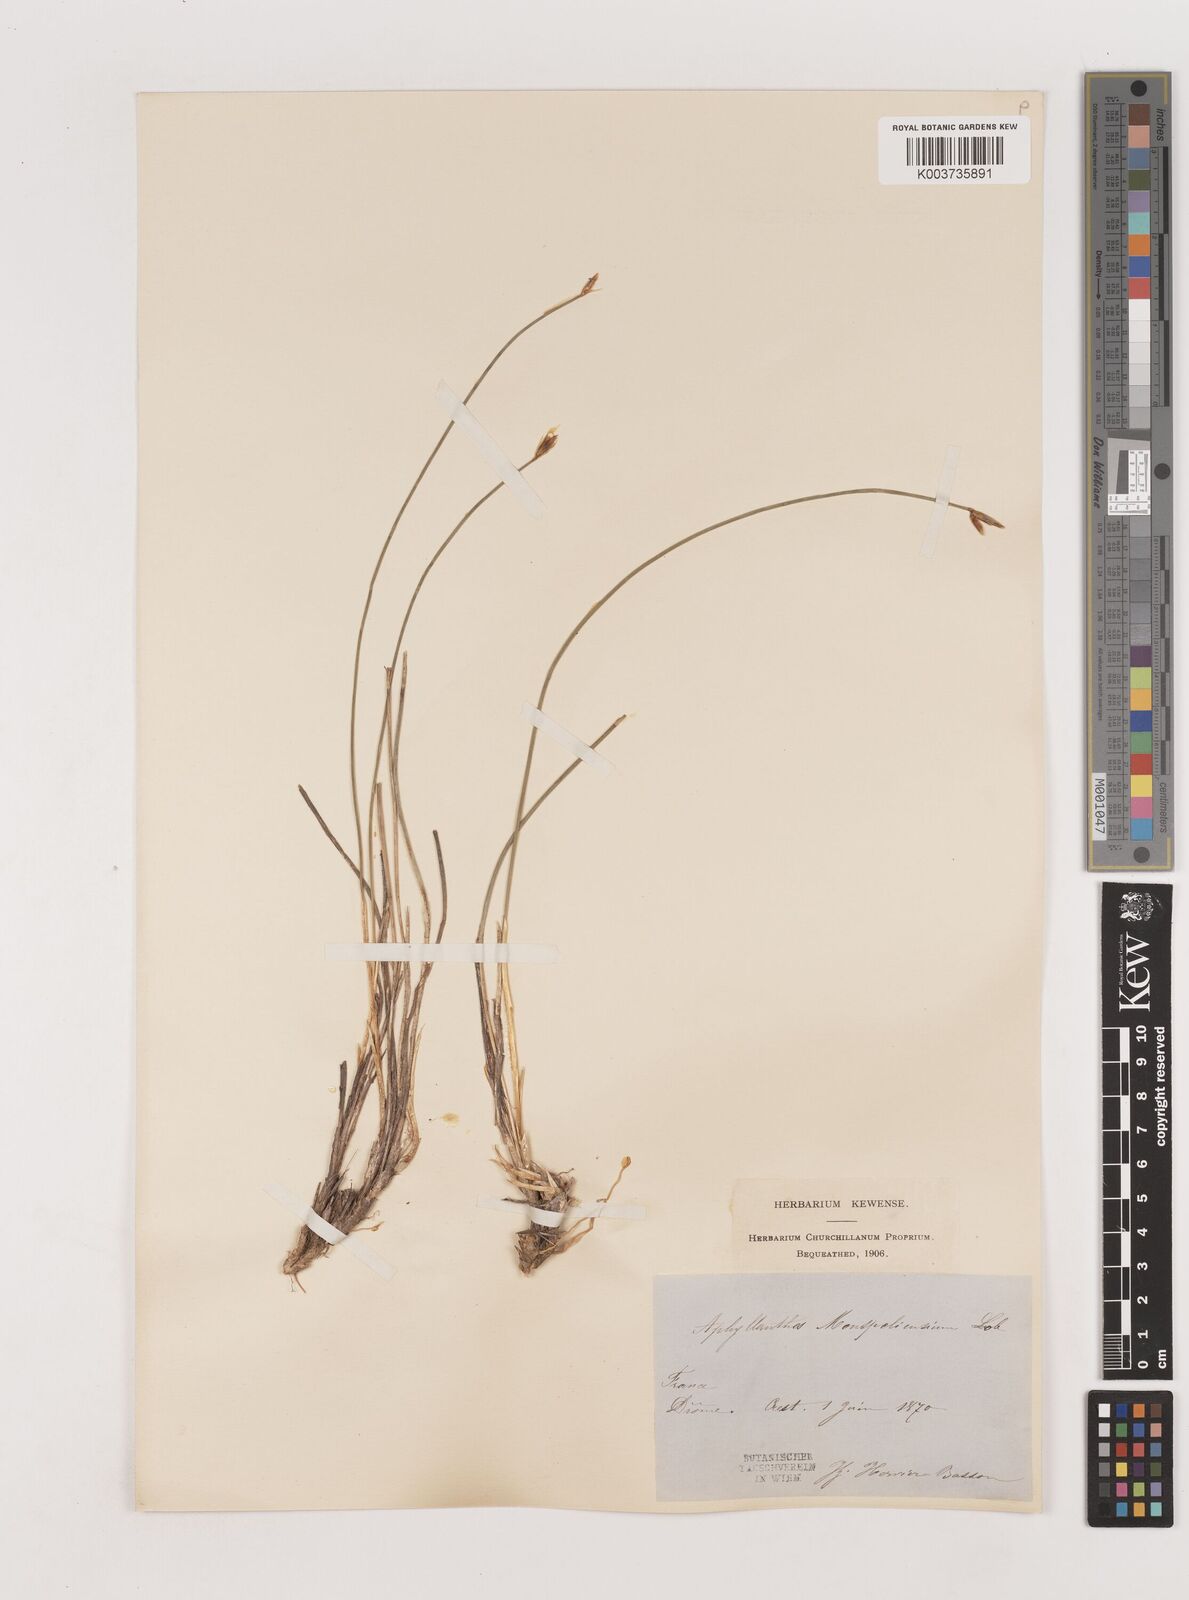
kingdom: Plantae
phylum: Tracheophyta
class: Liliopsida
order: Asparagales
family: Asparagaceae
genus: Aphyllanthes
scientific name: Aphyllanthes monspeliensis
